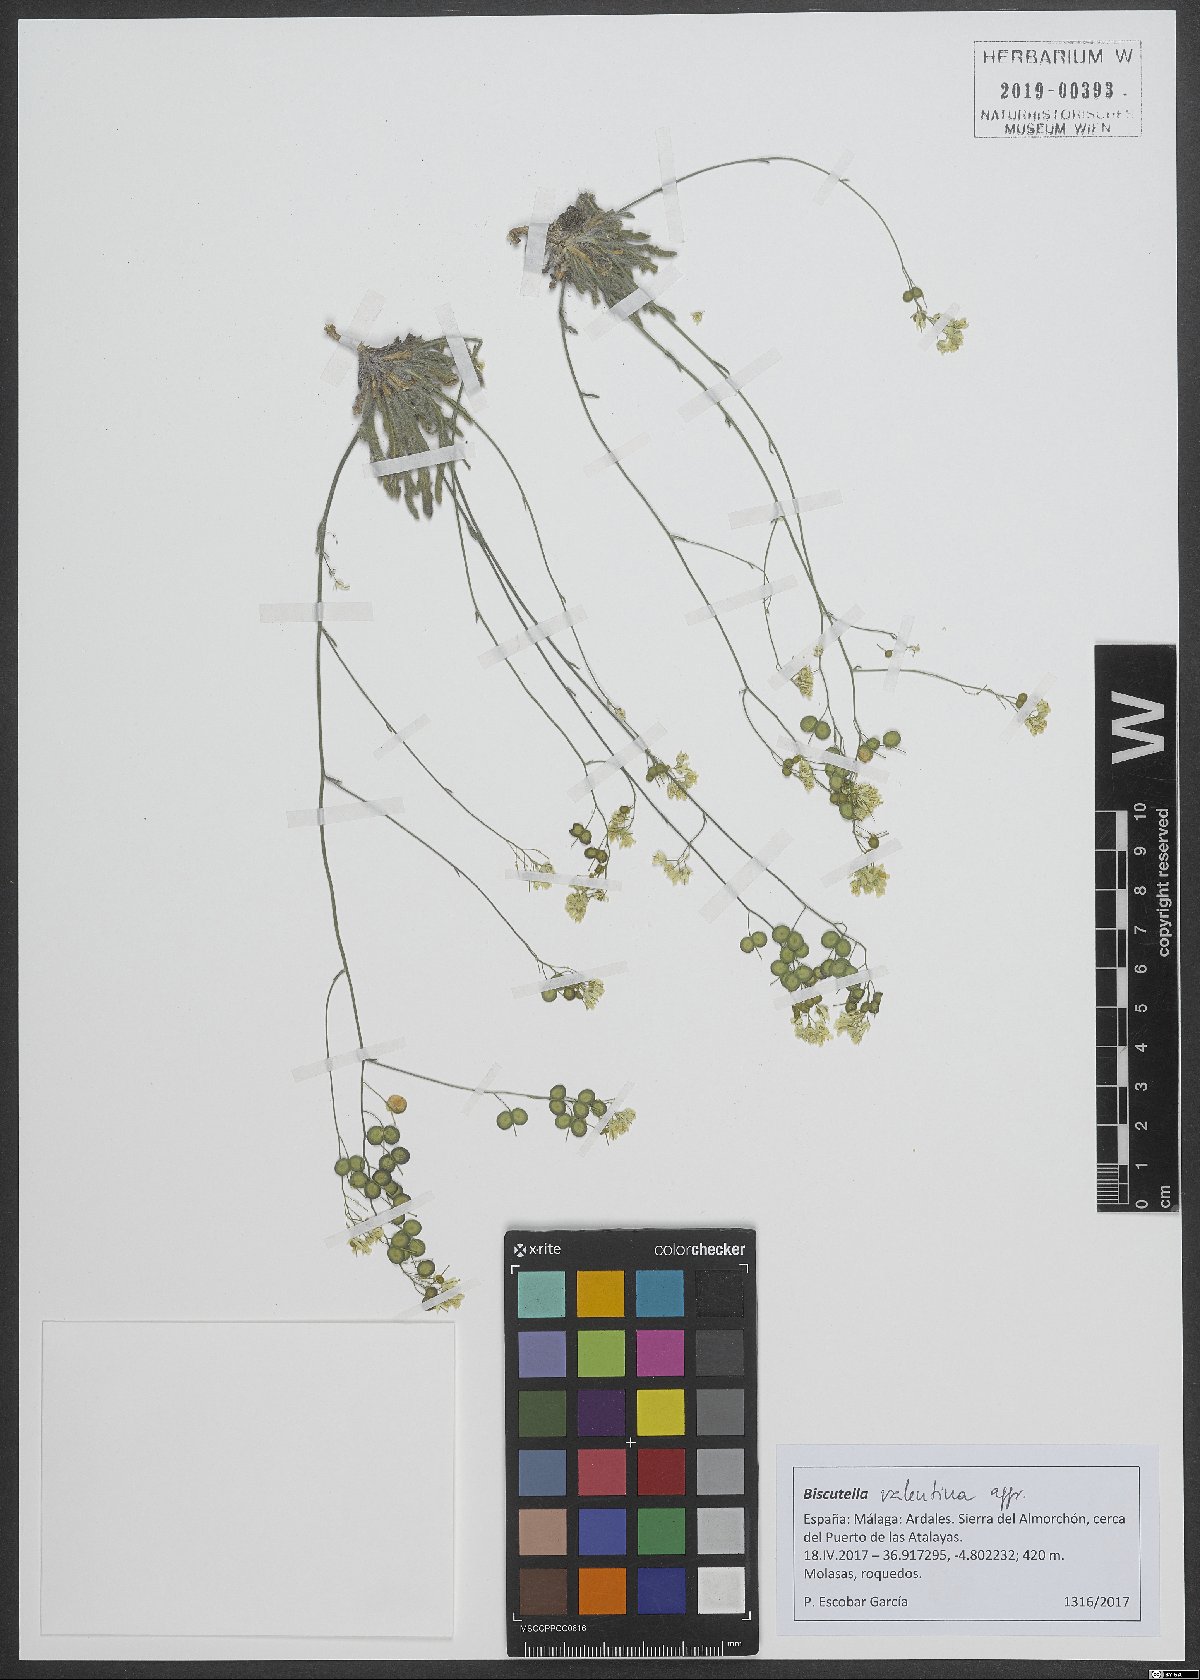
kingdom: Plantae
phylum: Tracheophyta
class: Magnoliopsida
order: Brassicales
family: Brassicaceae
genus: Biscutella
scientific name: Biscutella valentina
